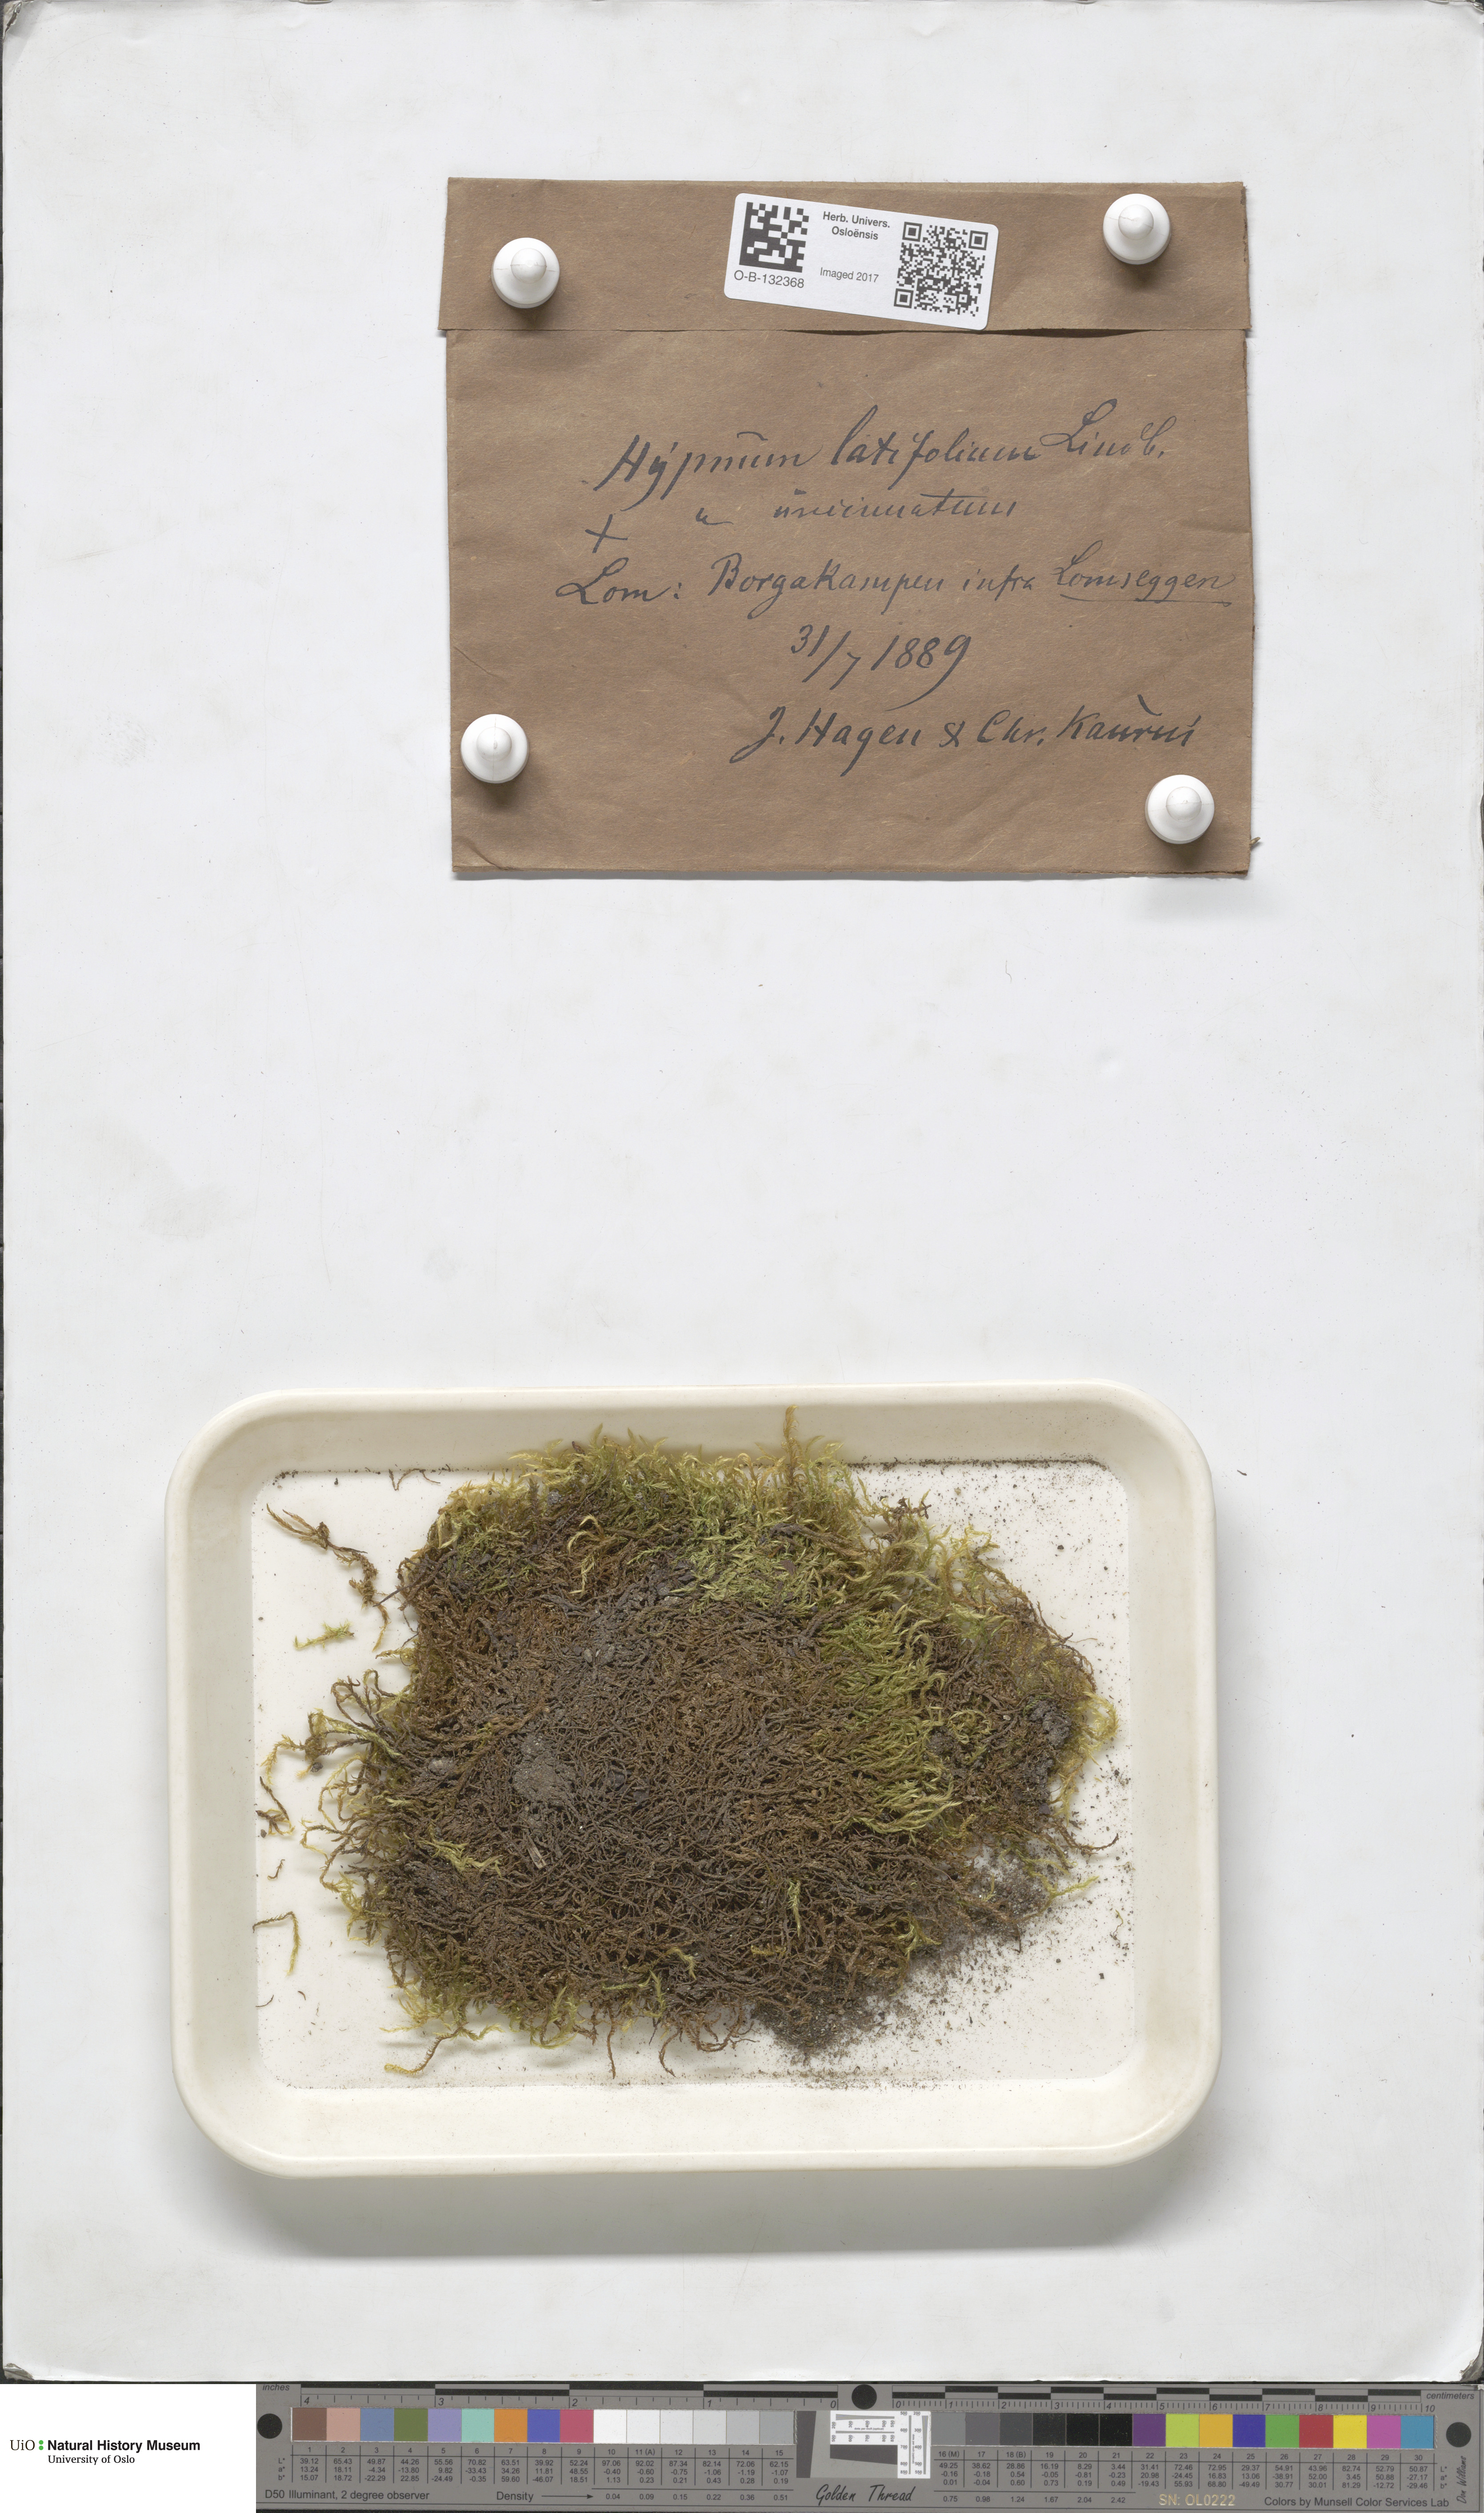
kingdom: Plantae
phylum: Bryophyta
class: Bryopsida
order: Hypnales
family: Brachytheciaceae
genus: Sciuro-hypnum
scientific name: Sciuro-hypnum latifolium
